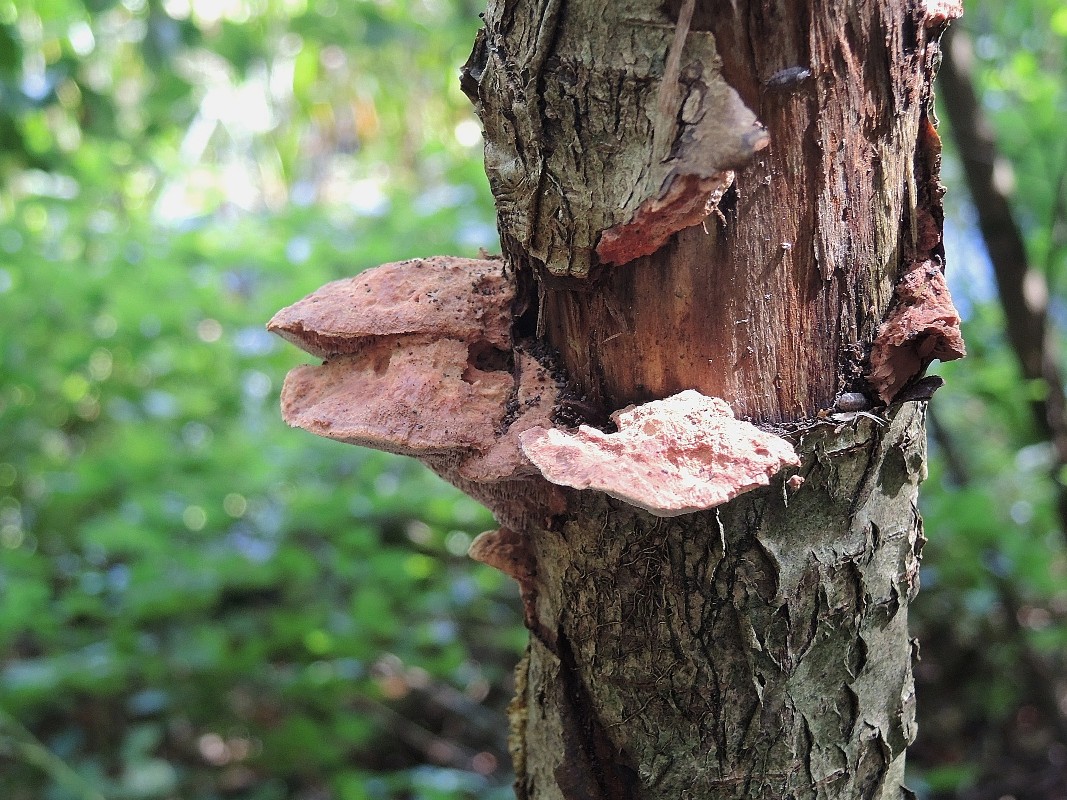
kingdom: Fungi
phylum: Basidiomycota
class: Agaricomycetes
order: Polyporales
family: Phanerochaetaceae
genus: Hapalopilus
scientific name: Hapalopilus rutilans
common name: rødlig okkerporesvamp
